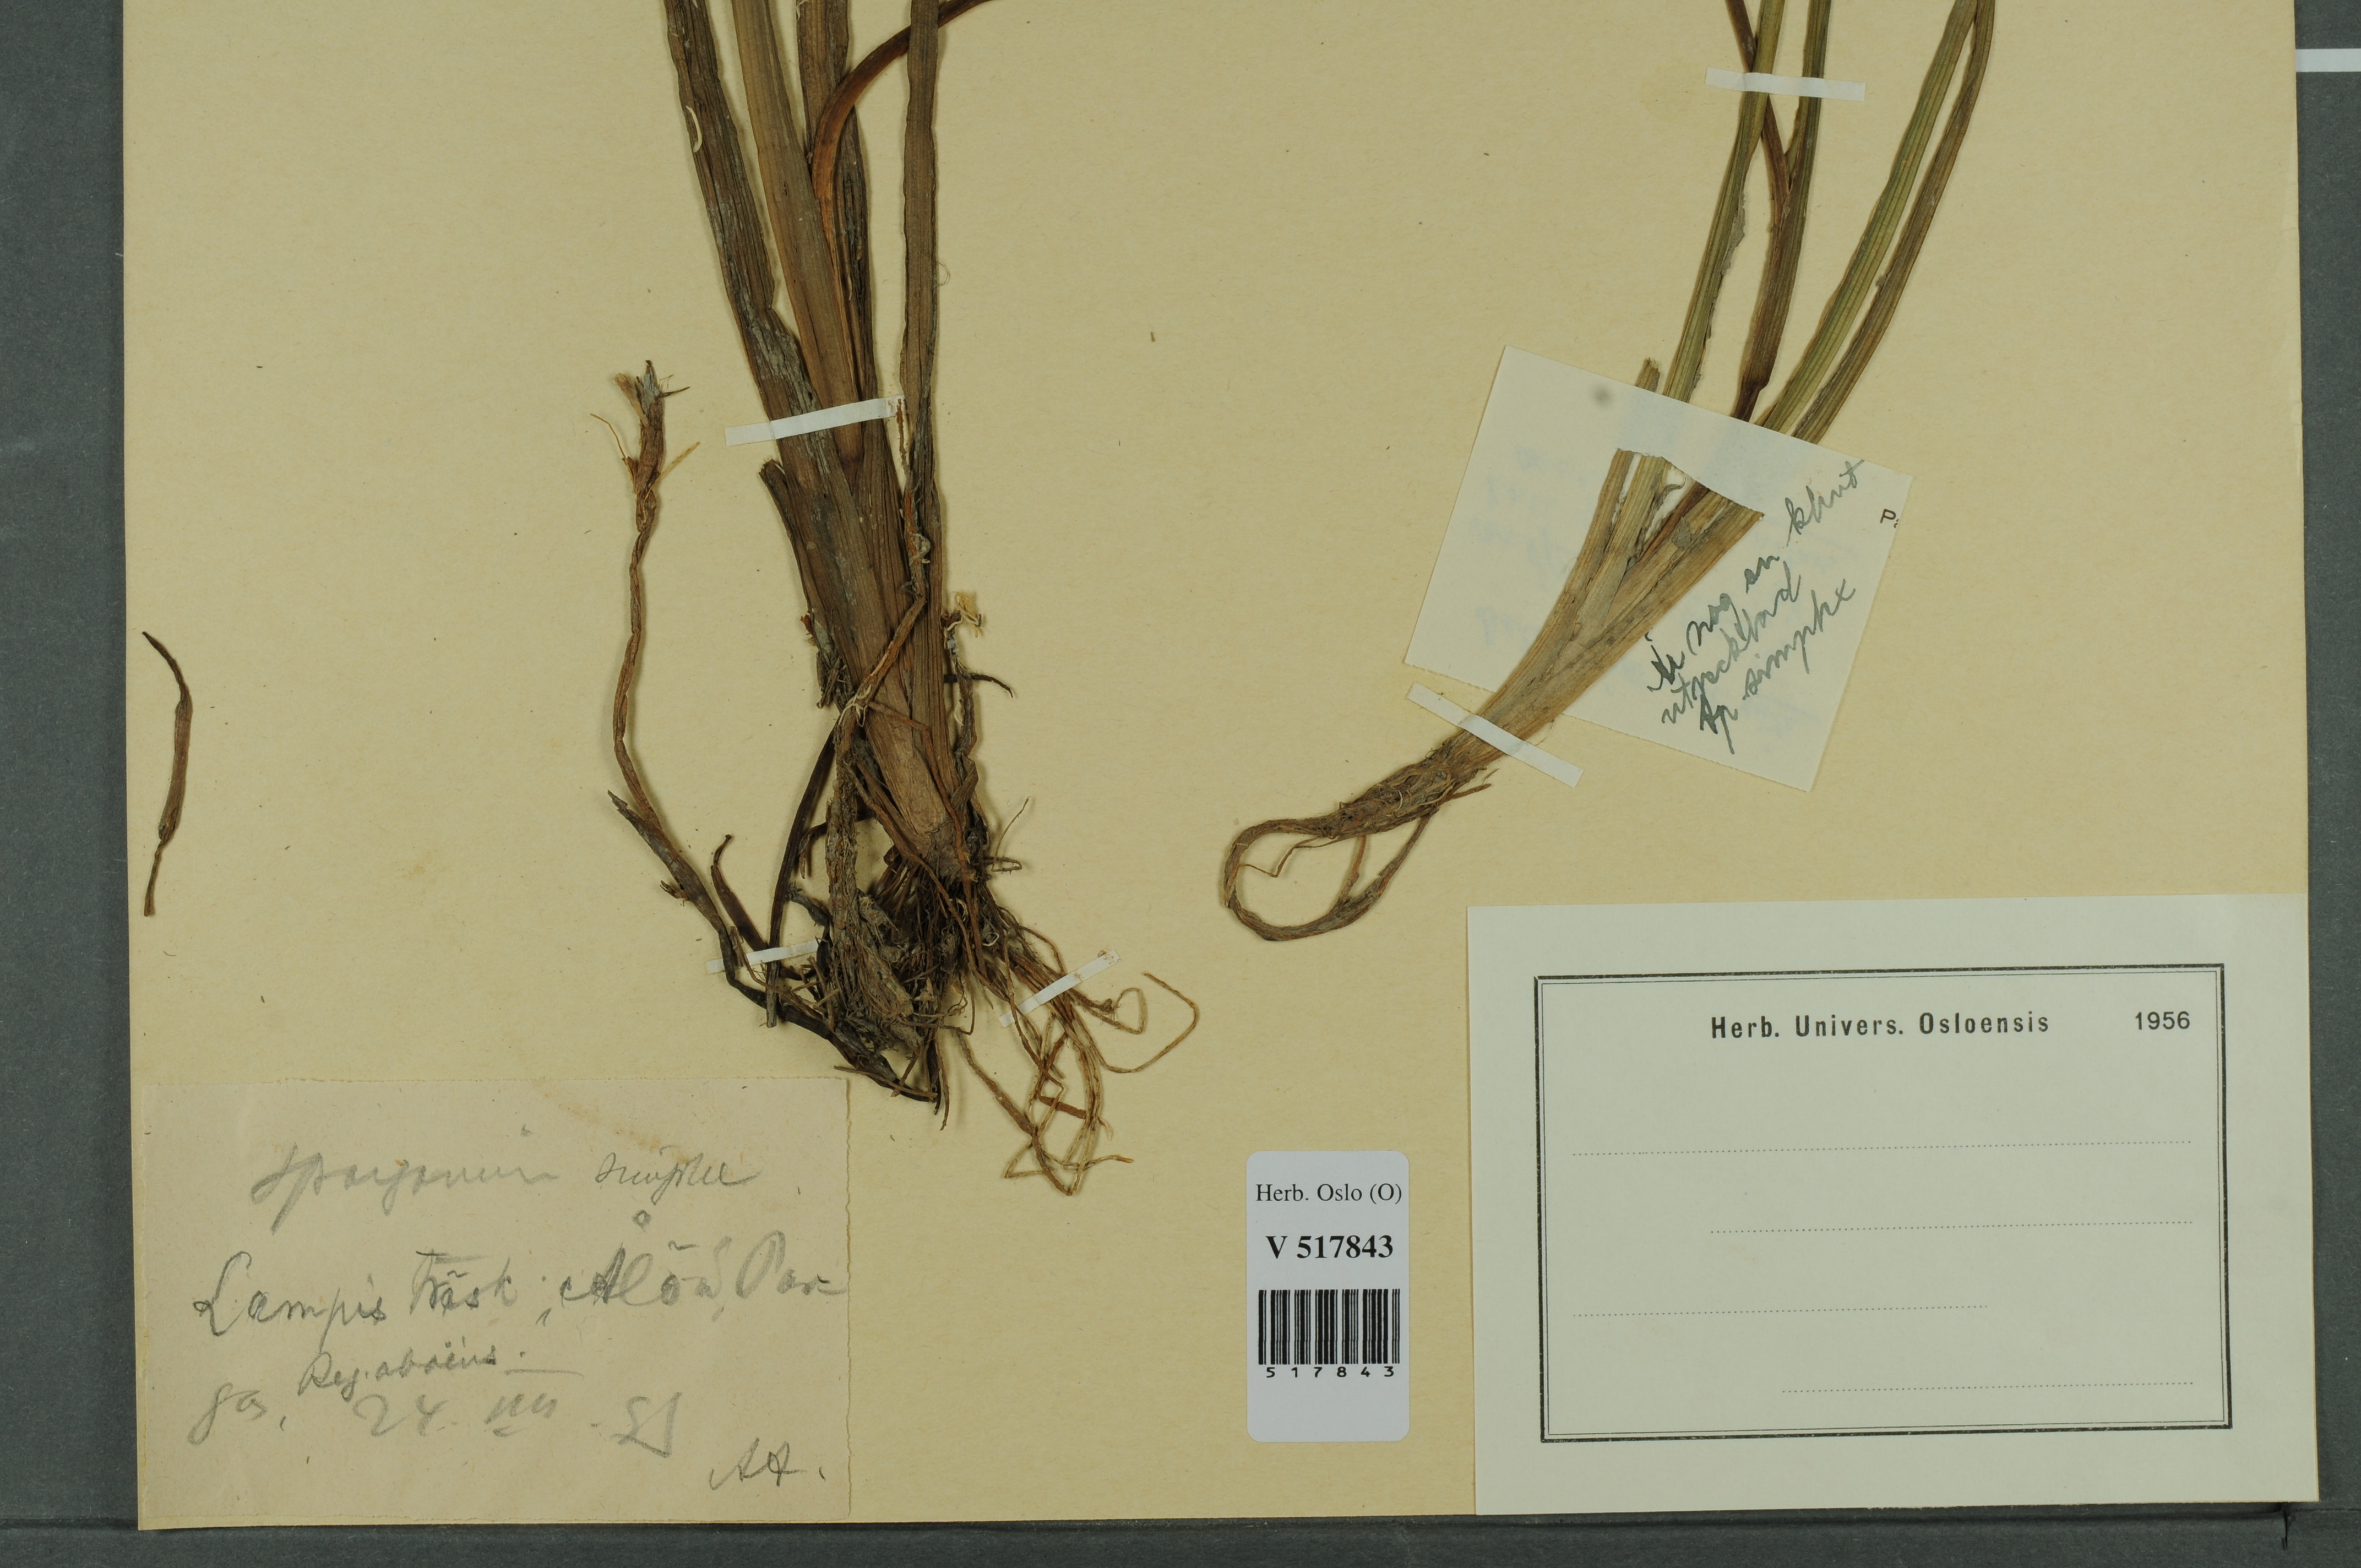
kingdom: Plantae
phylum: Tracheophyta
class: Liliopsida
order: Poales
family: Typhaceae
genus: Sparganium
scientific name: Sparganium emersum
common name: Unbranched bur-reed
